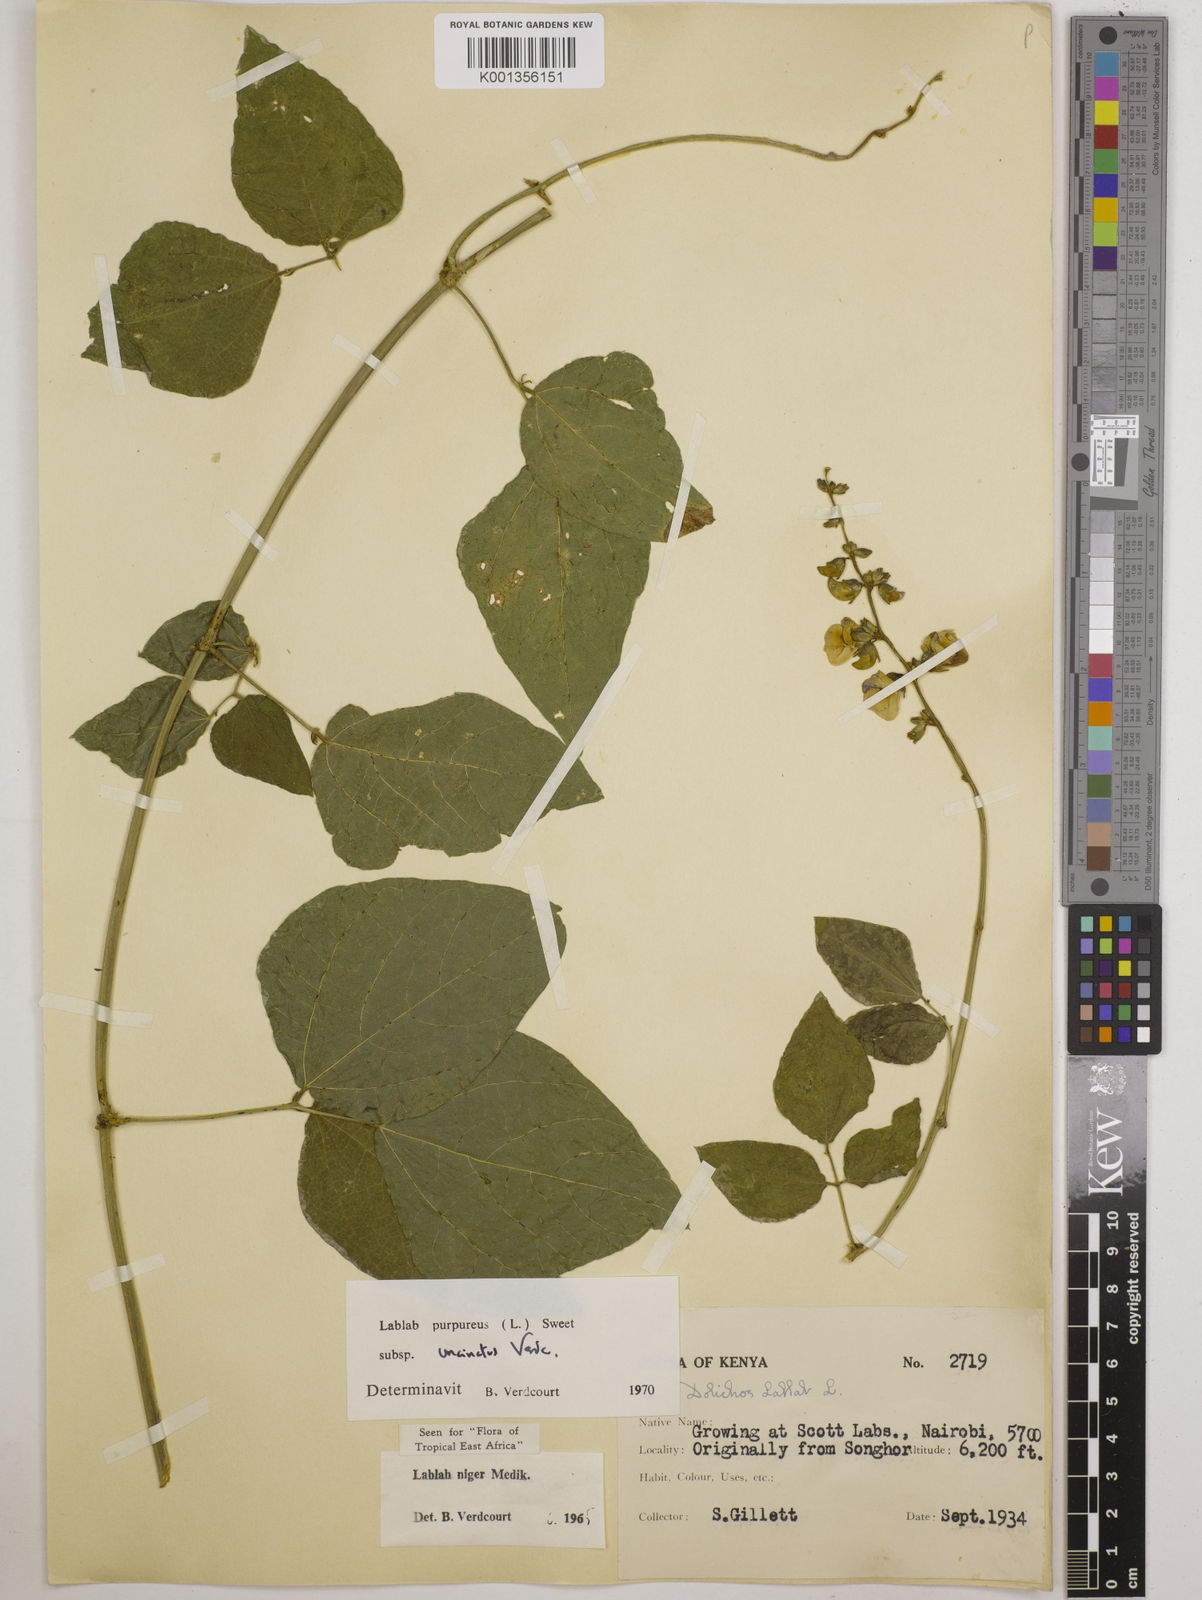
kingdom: Plantae
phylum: Tracheophyta
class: Magnoliopsida
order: Fabales
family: Fabaceae
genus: Lablab
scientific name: Lablab purpureus
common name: Lablab-bean
